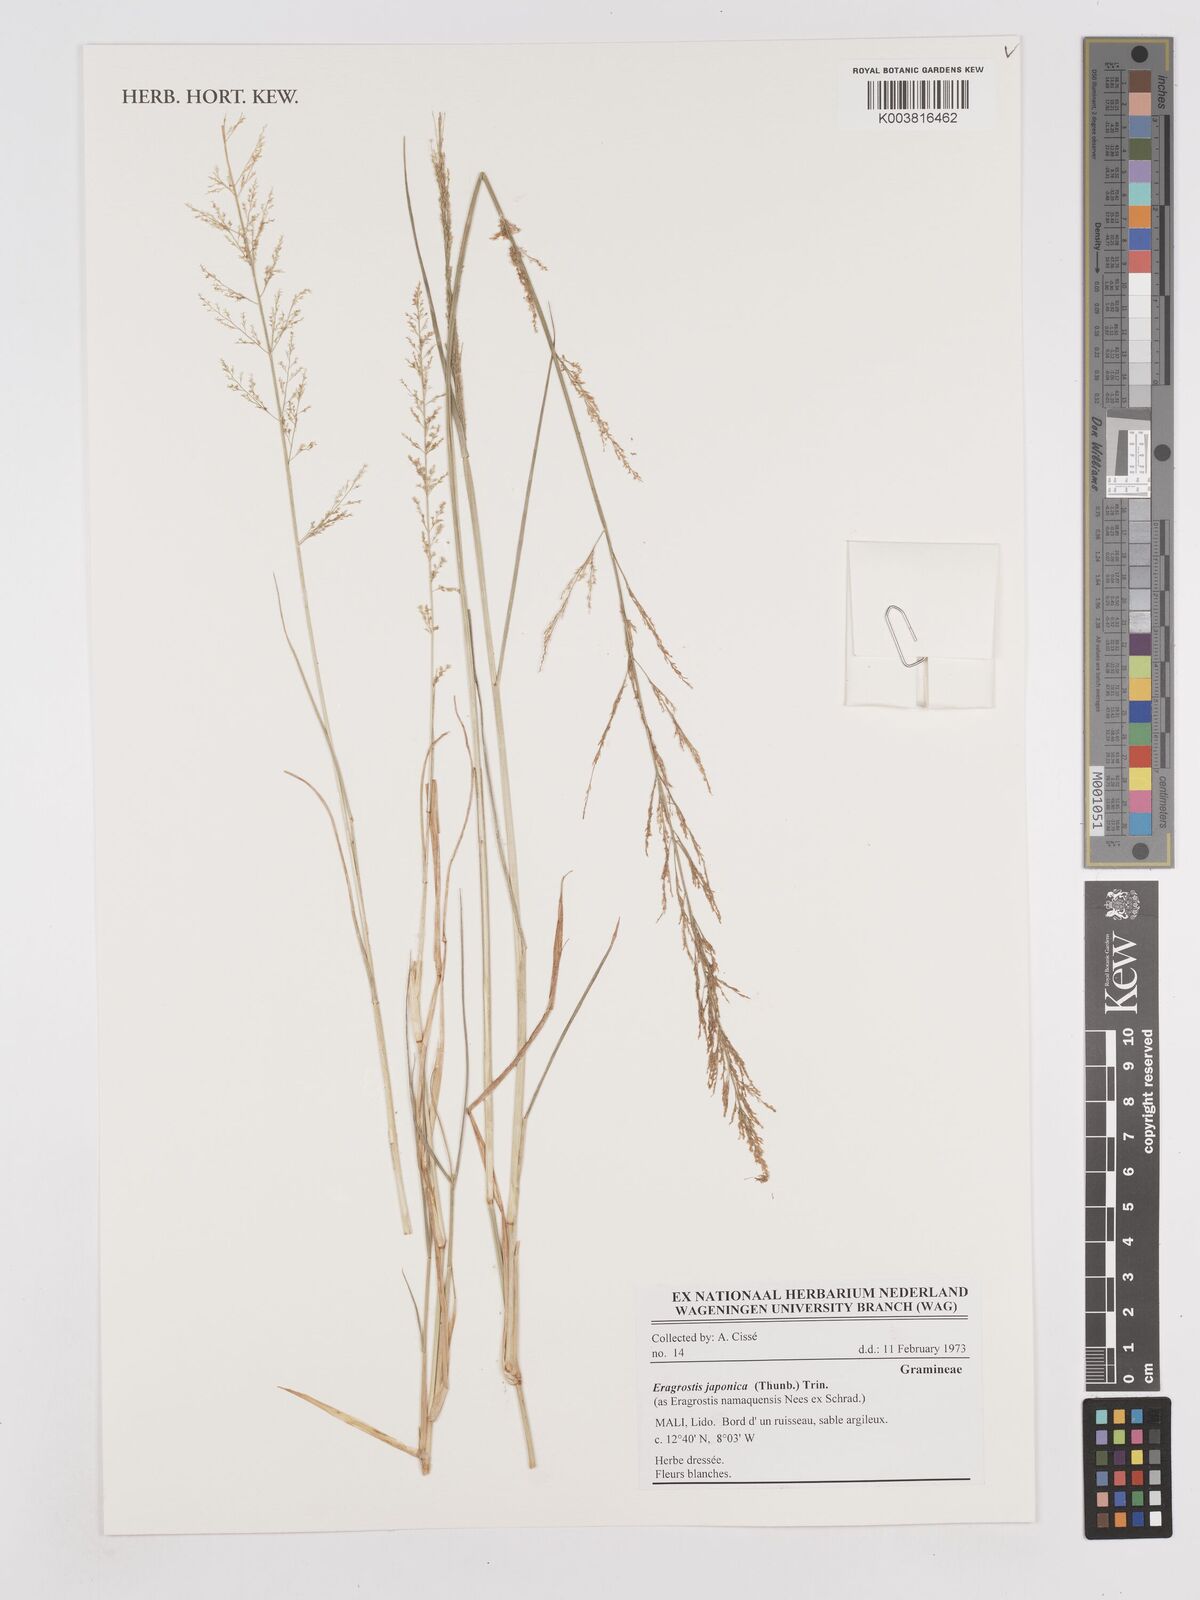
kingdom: Plantae
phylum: Tracheophyta
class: Liliopsida
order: Poales
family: Poaceae
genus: Eragrostis
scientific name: Eragrostis japonica
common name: Pond lovegrass
